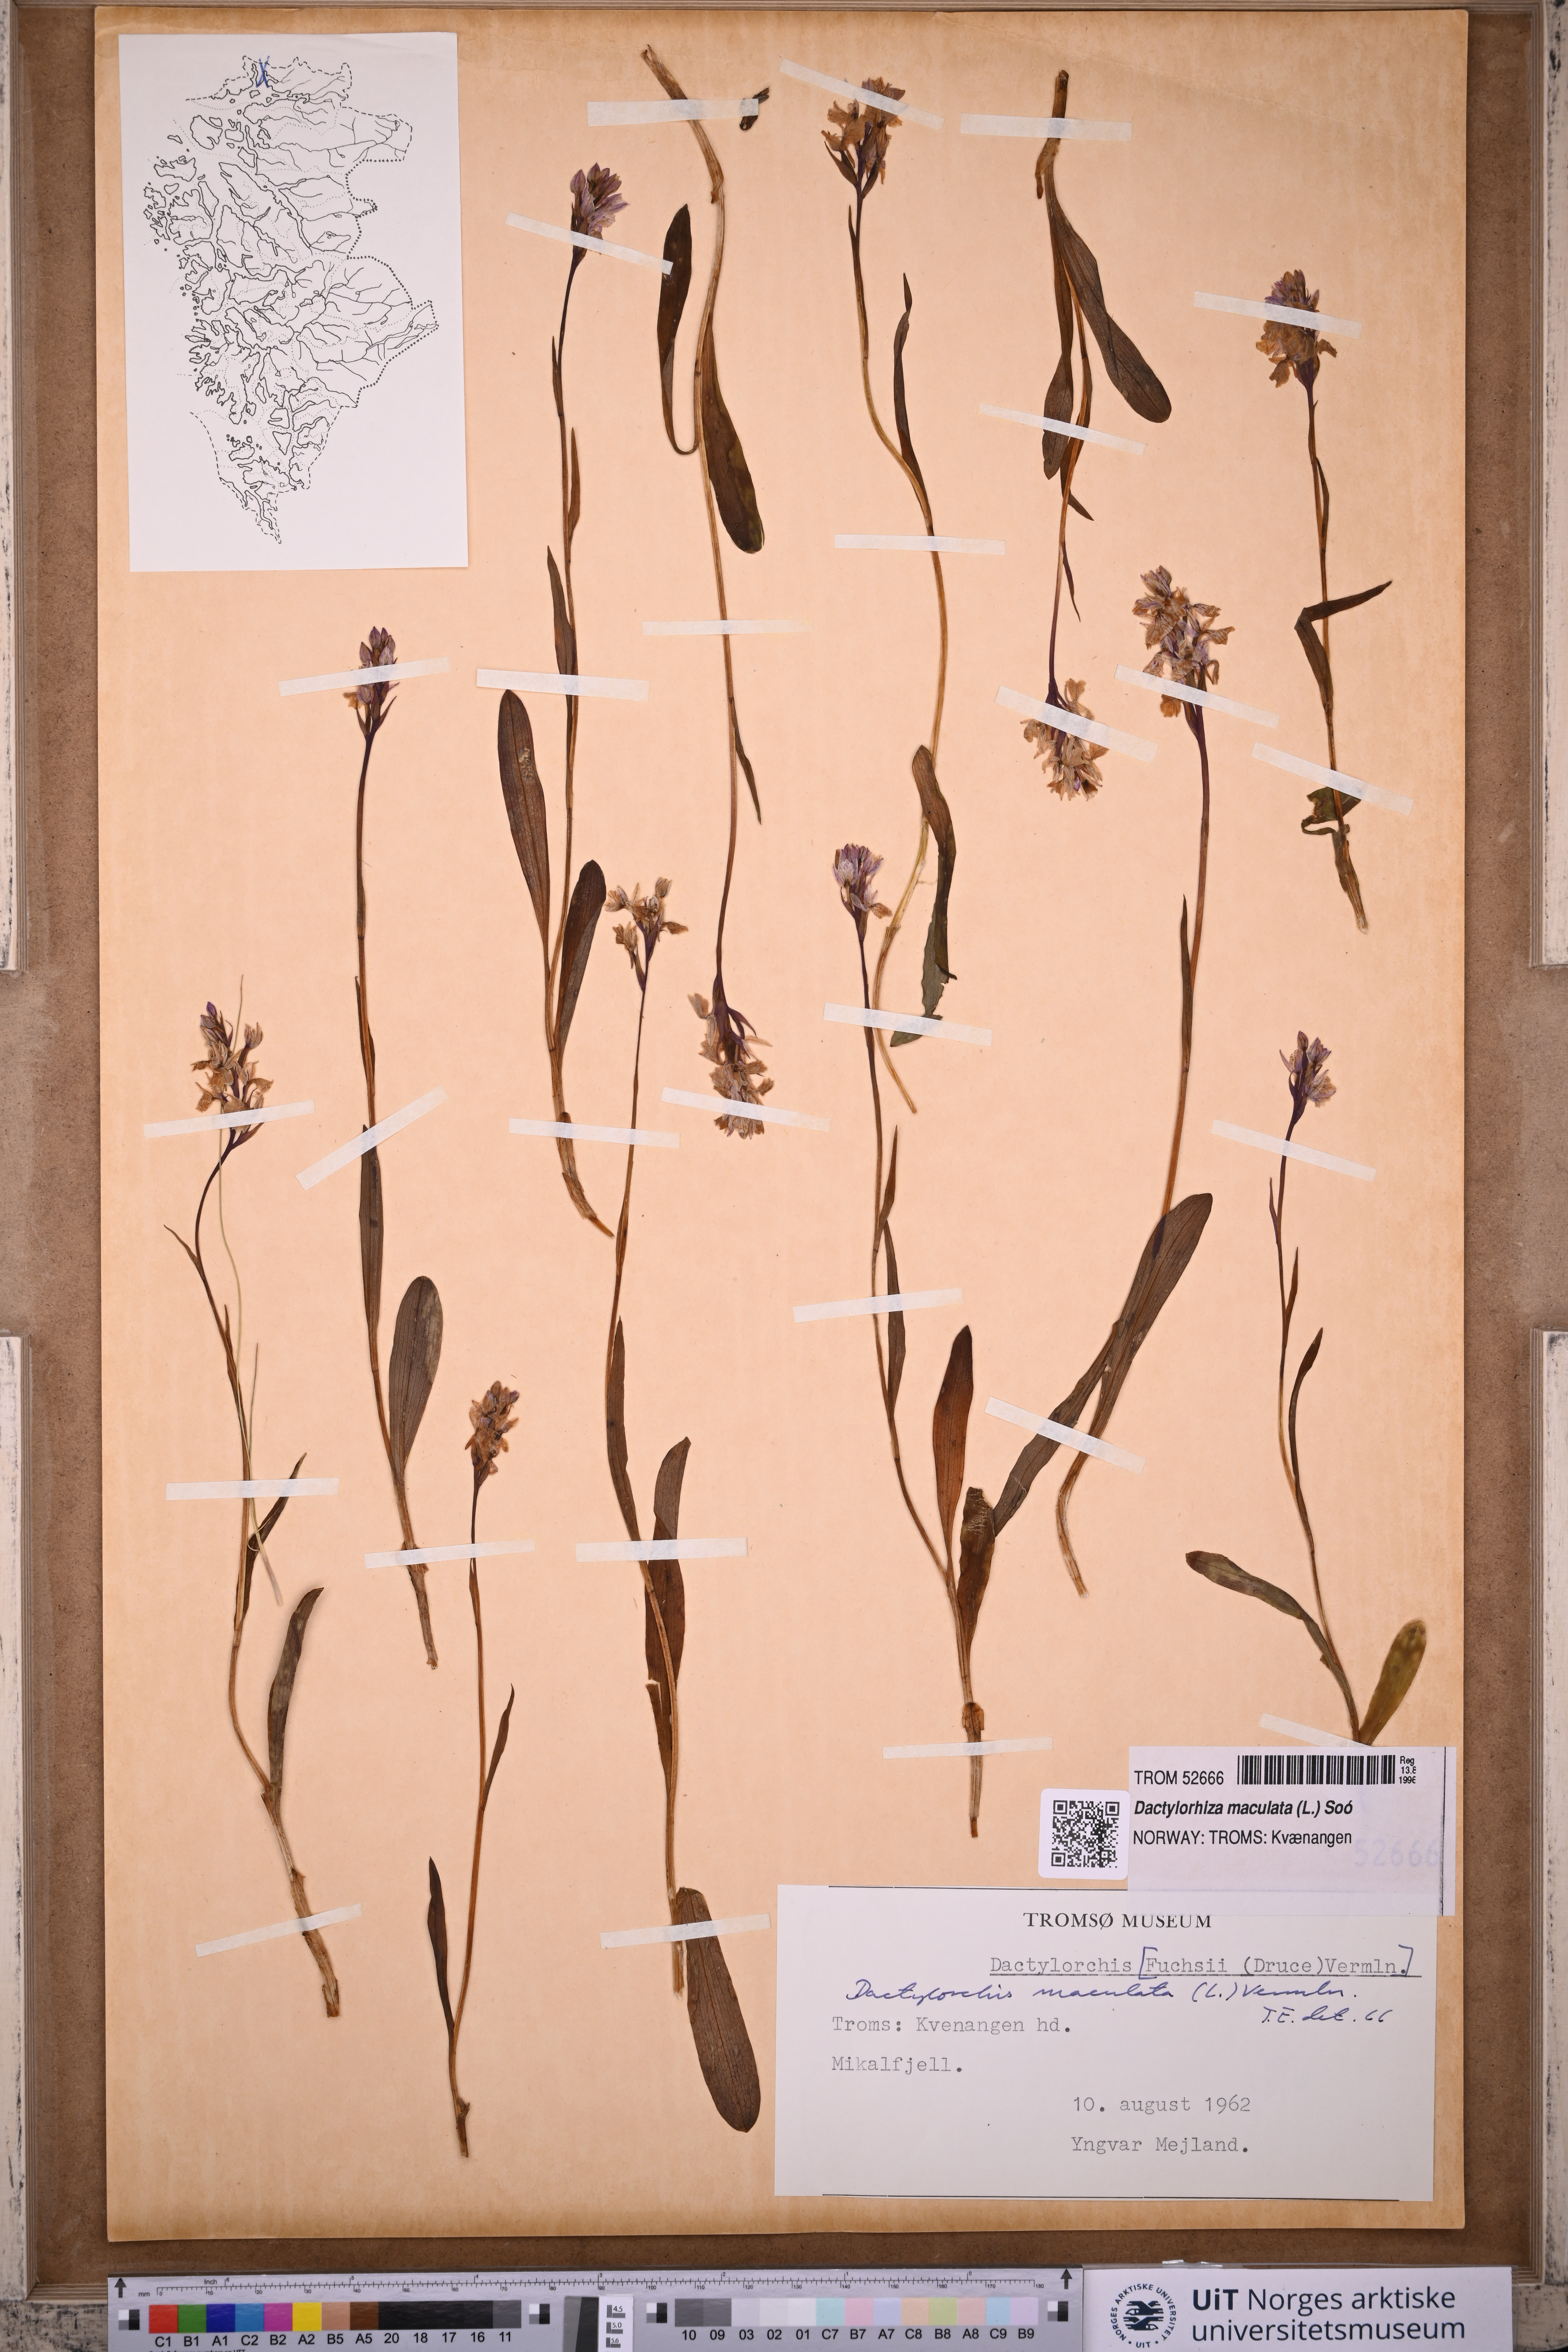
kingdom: Plantae
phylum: Tracheophyta
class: Liliopsida
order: Asparagales
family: Orchidaceae
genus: Dactylorhiza
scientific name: Dactylorhiza maculata
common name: Heath spotted-orchid
